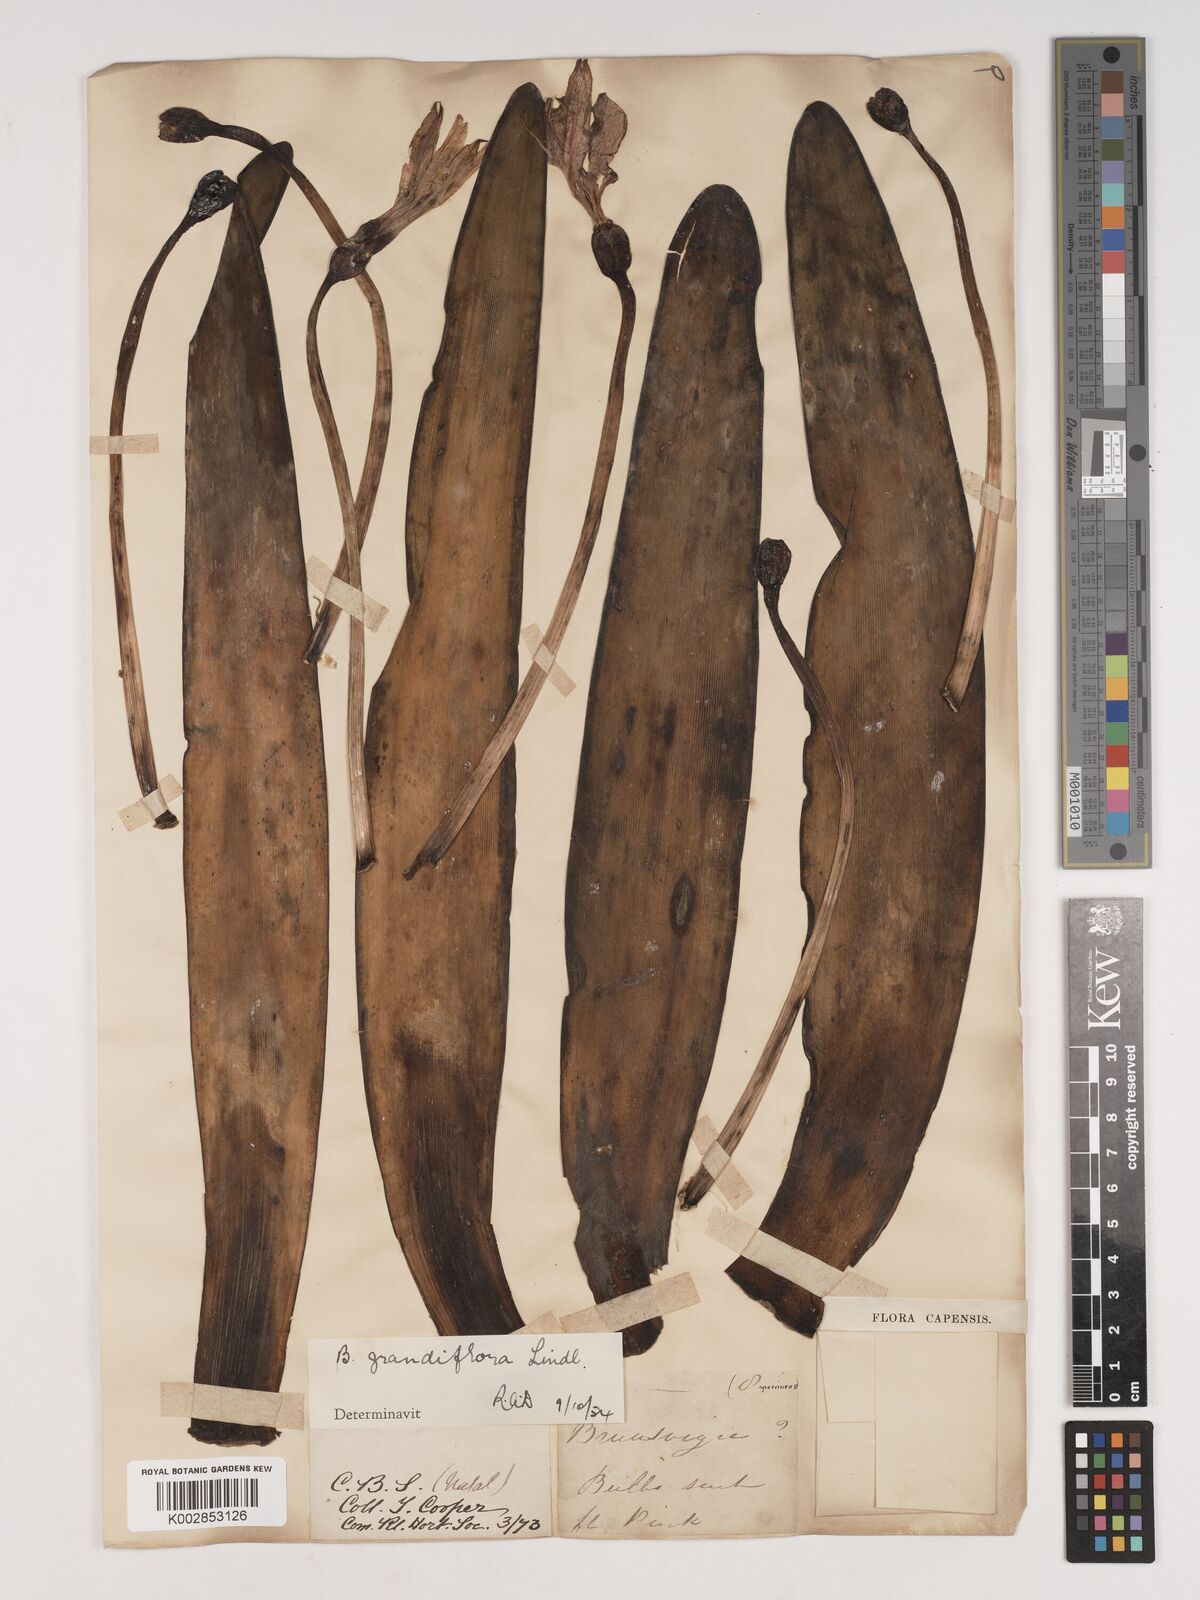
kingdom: Plantae
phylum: Tracheophyta
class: Liliopsida
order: Asparagales
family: Amaryllidaceae
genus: Brunsvigia
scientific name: Brunsvigia grandiflora
